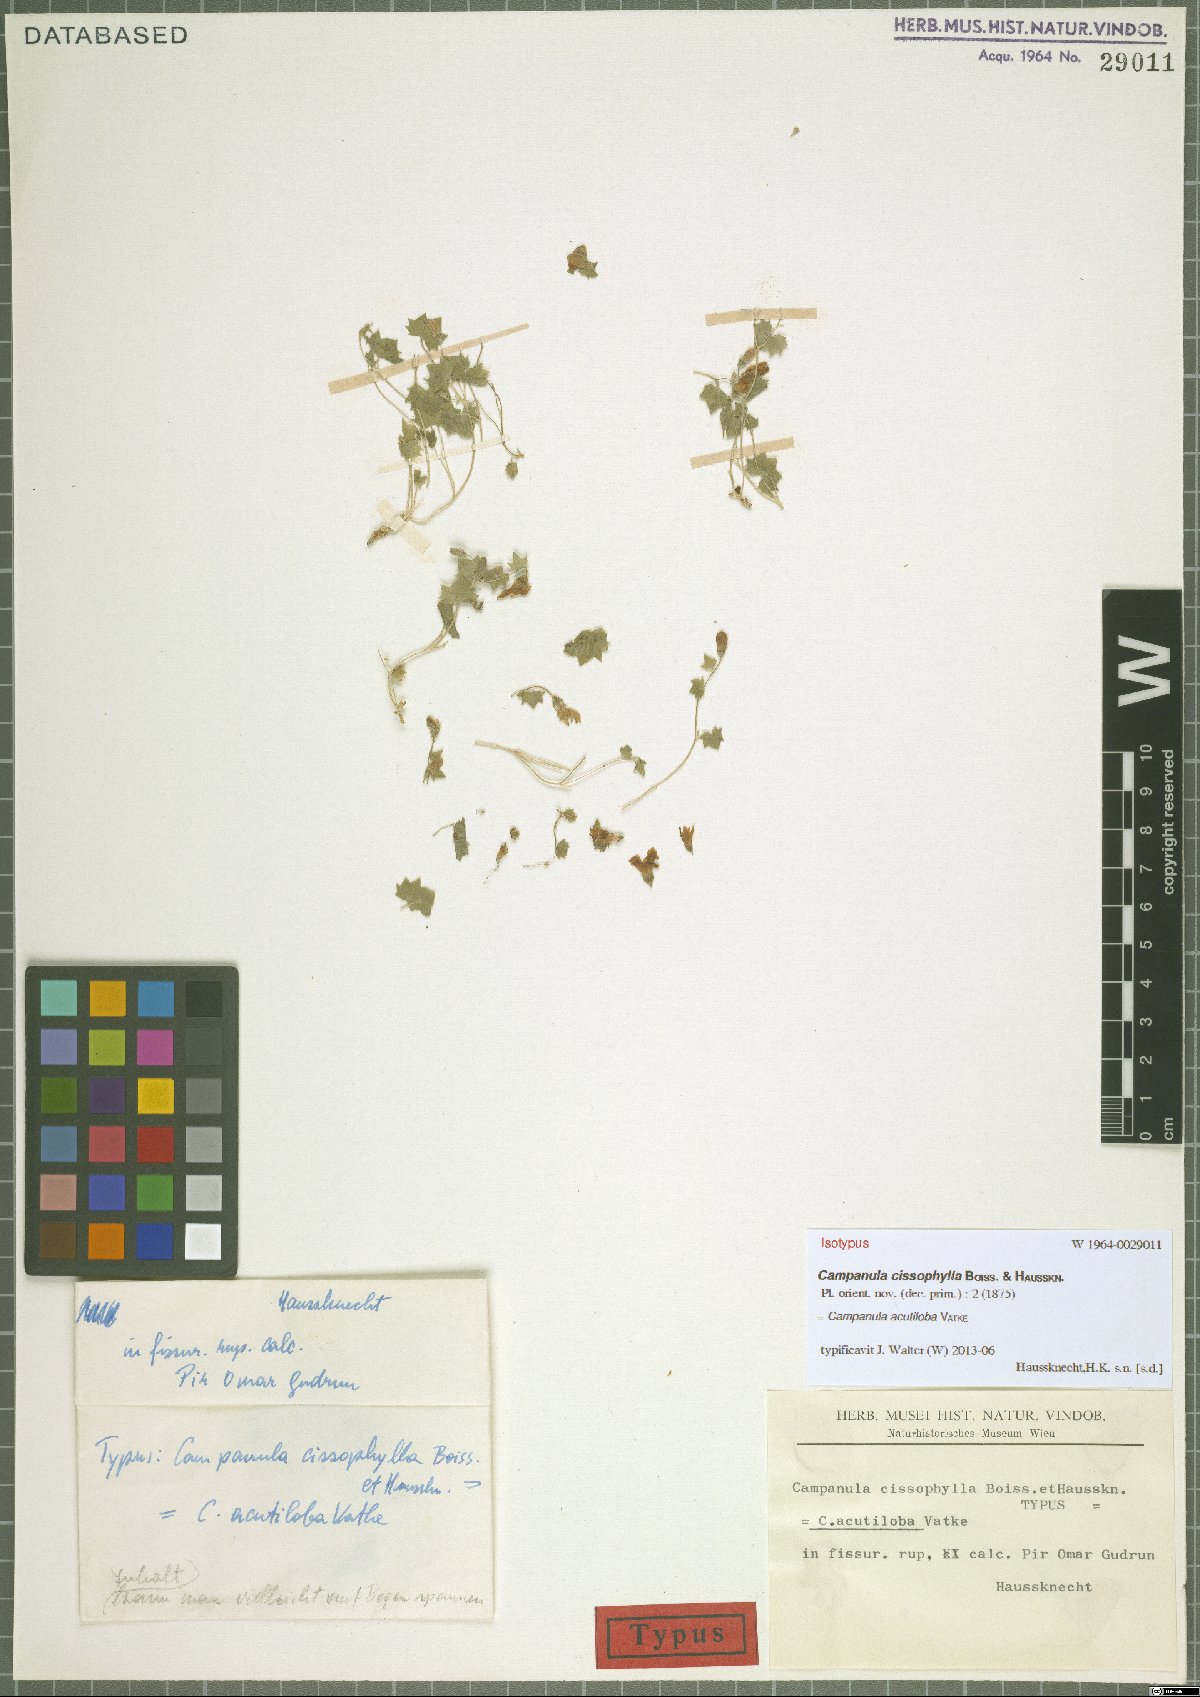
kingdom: Plantae
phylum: Tracheophyta
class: Magnoliopsida
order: Asterales
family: Campanulaceae
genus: Campanula
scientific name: Campanula acutiloba
